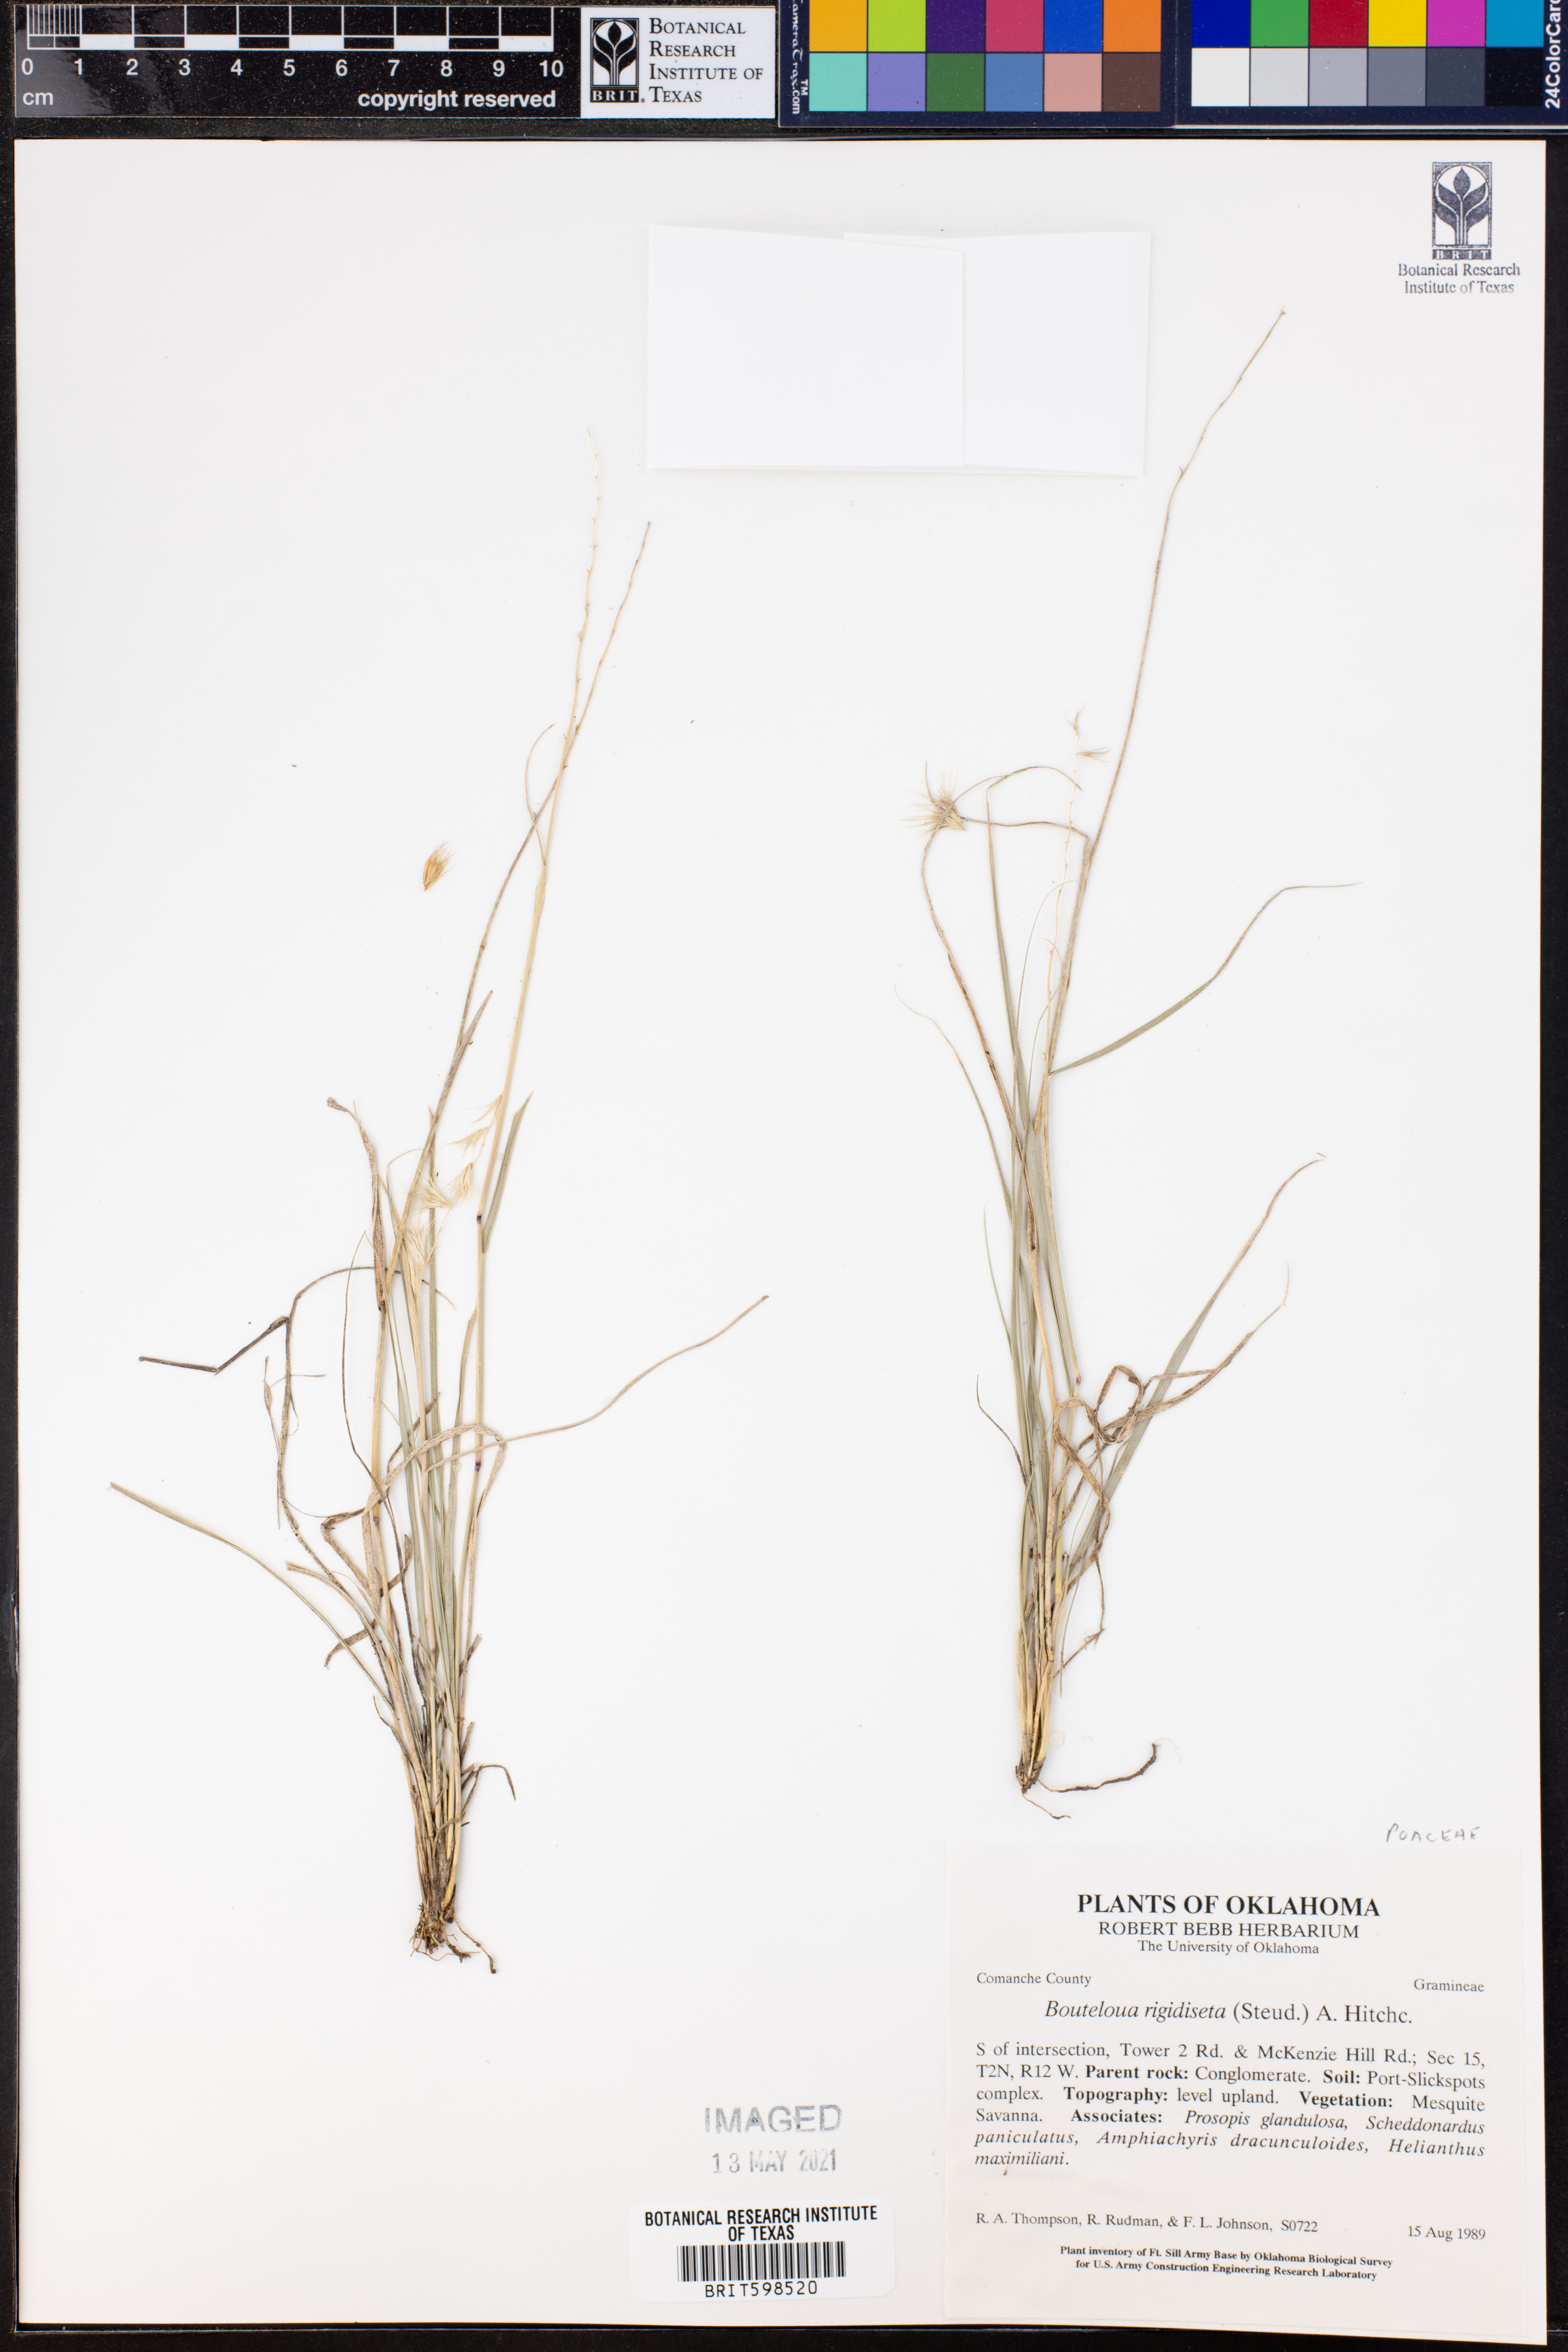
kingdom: Plantae
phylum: Tracheophyta
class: Liliopsida
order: Poales
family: Poaceae
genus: Bouteloua
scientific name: Bouteloua rigidiseta
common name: Texas grama
